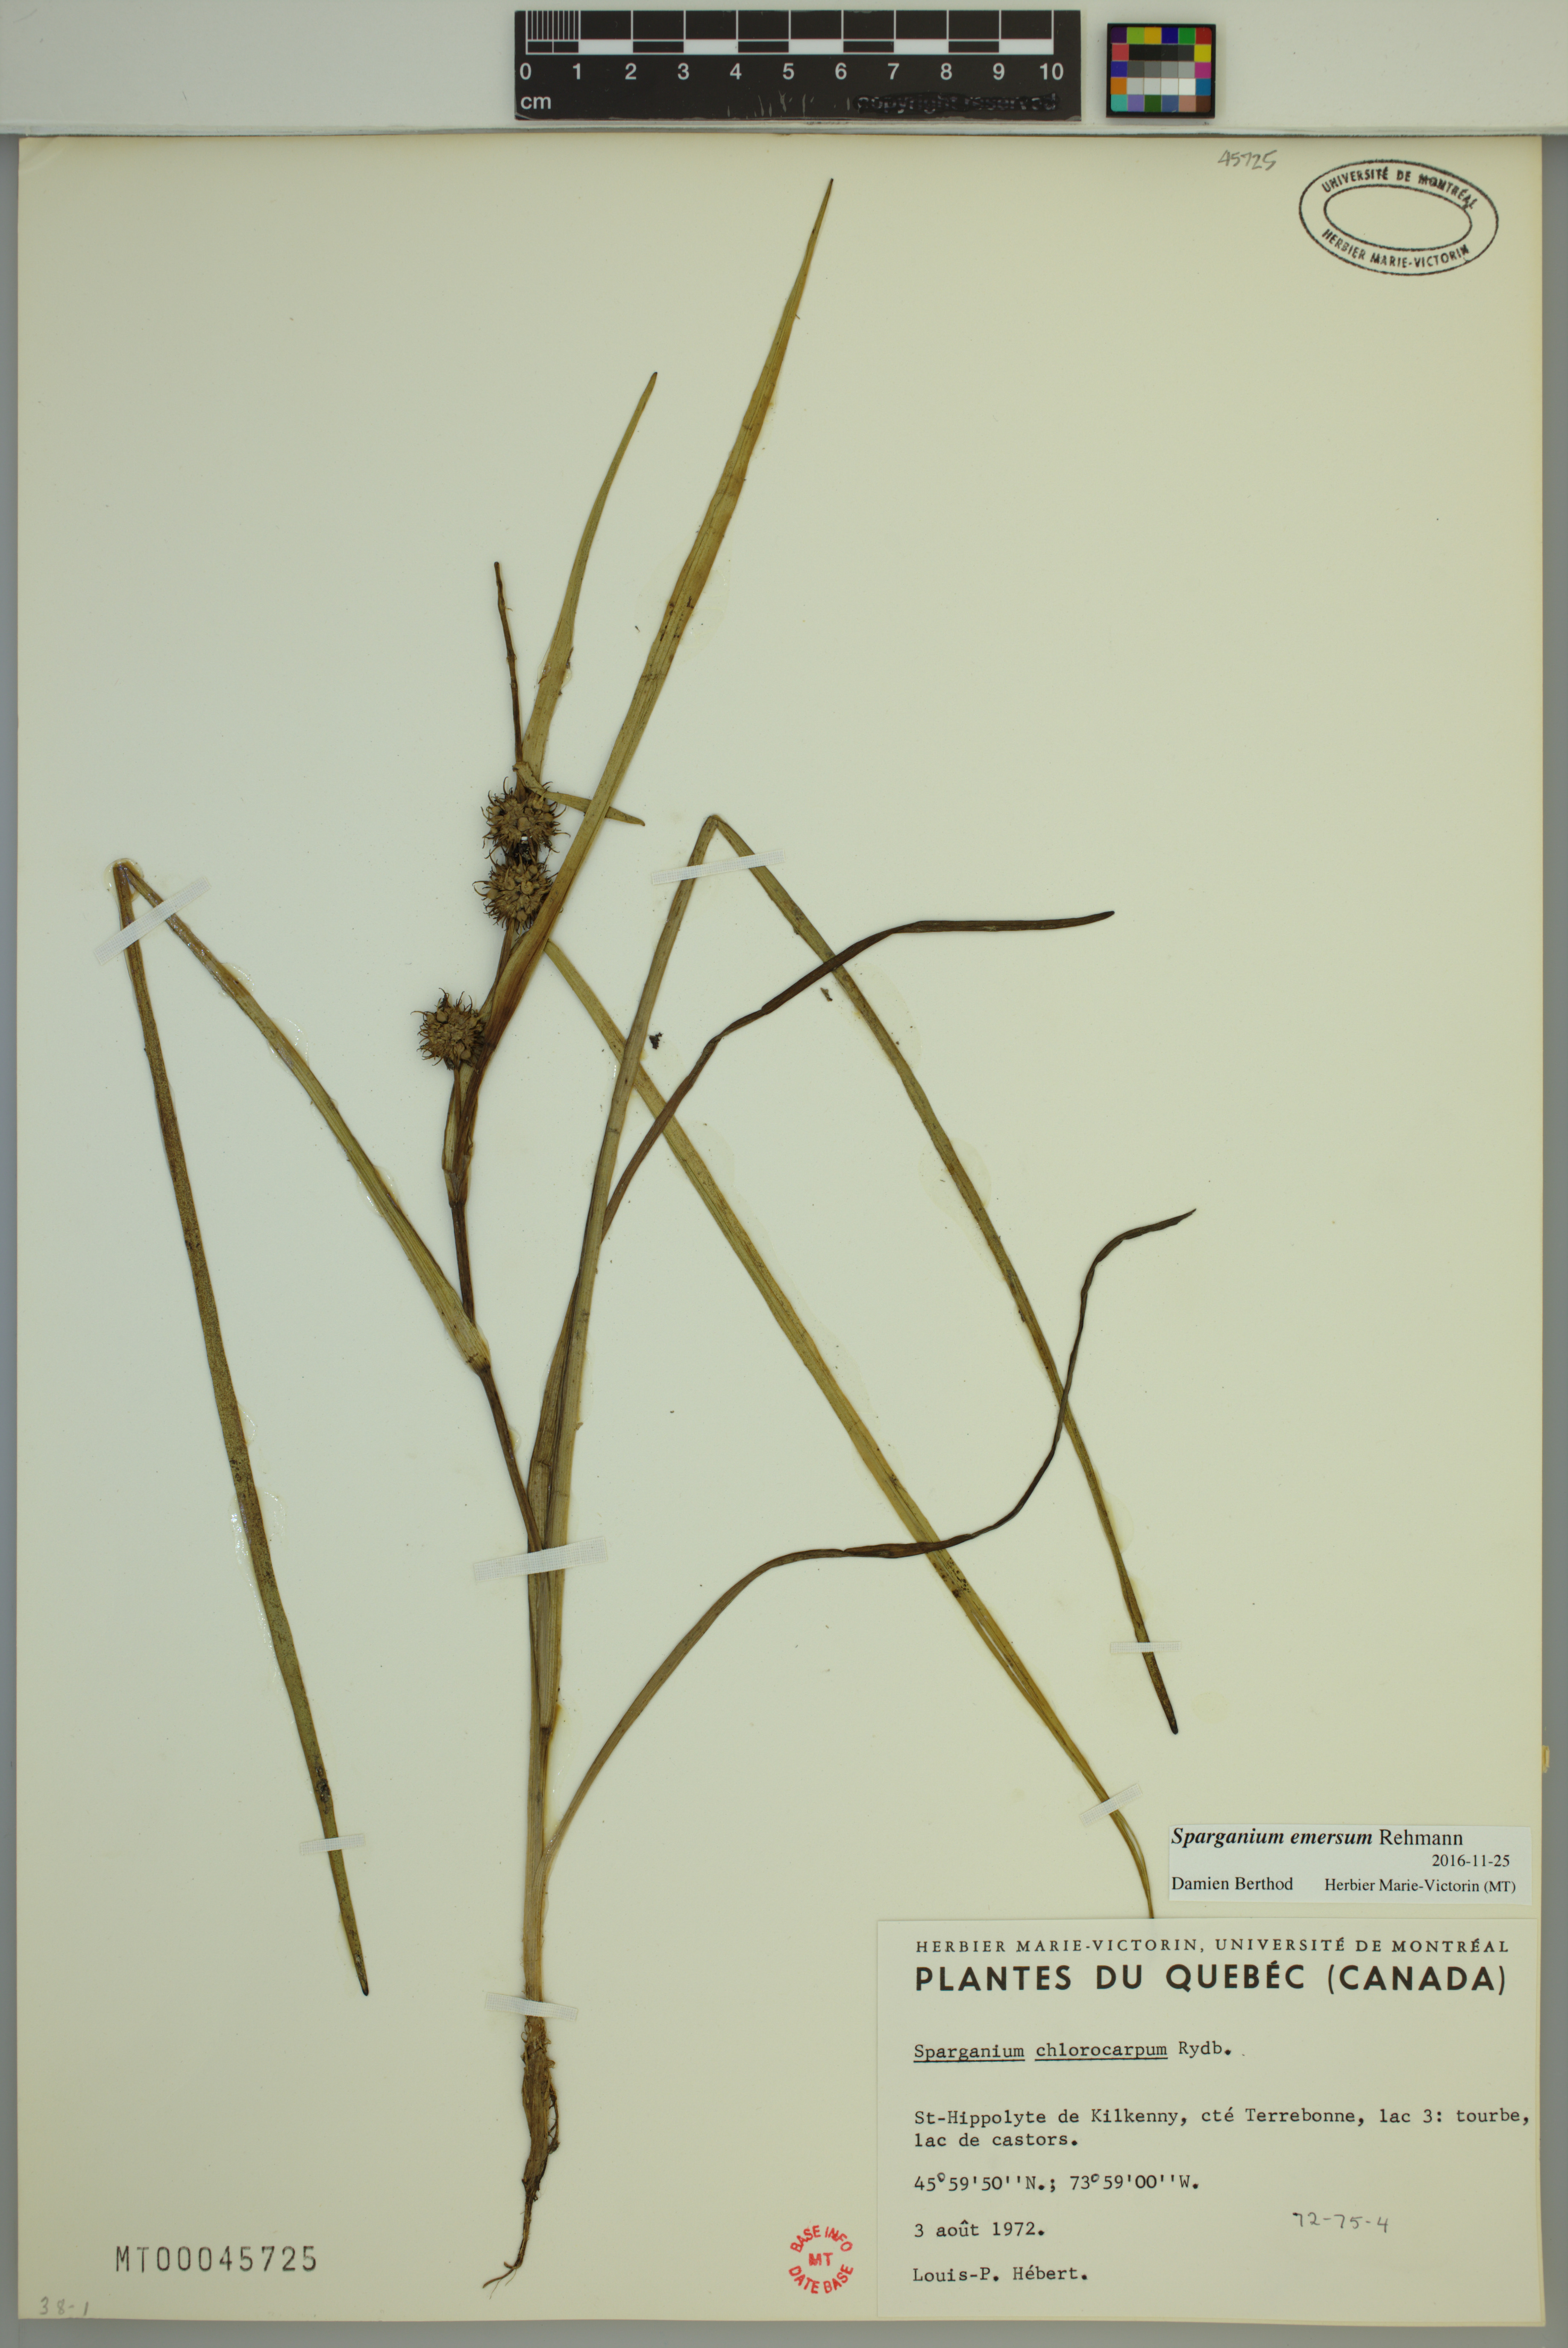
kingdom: Plantae
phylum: Tracheophyta
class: Liliopsida
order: Poales
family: Typhaceae
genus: Sparganium
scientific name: Sparganium emersum
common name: Unbranched bur-reed
